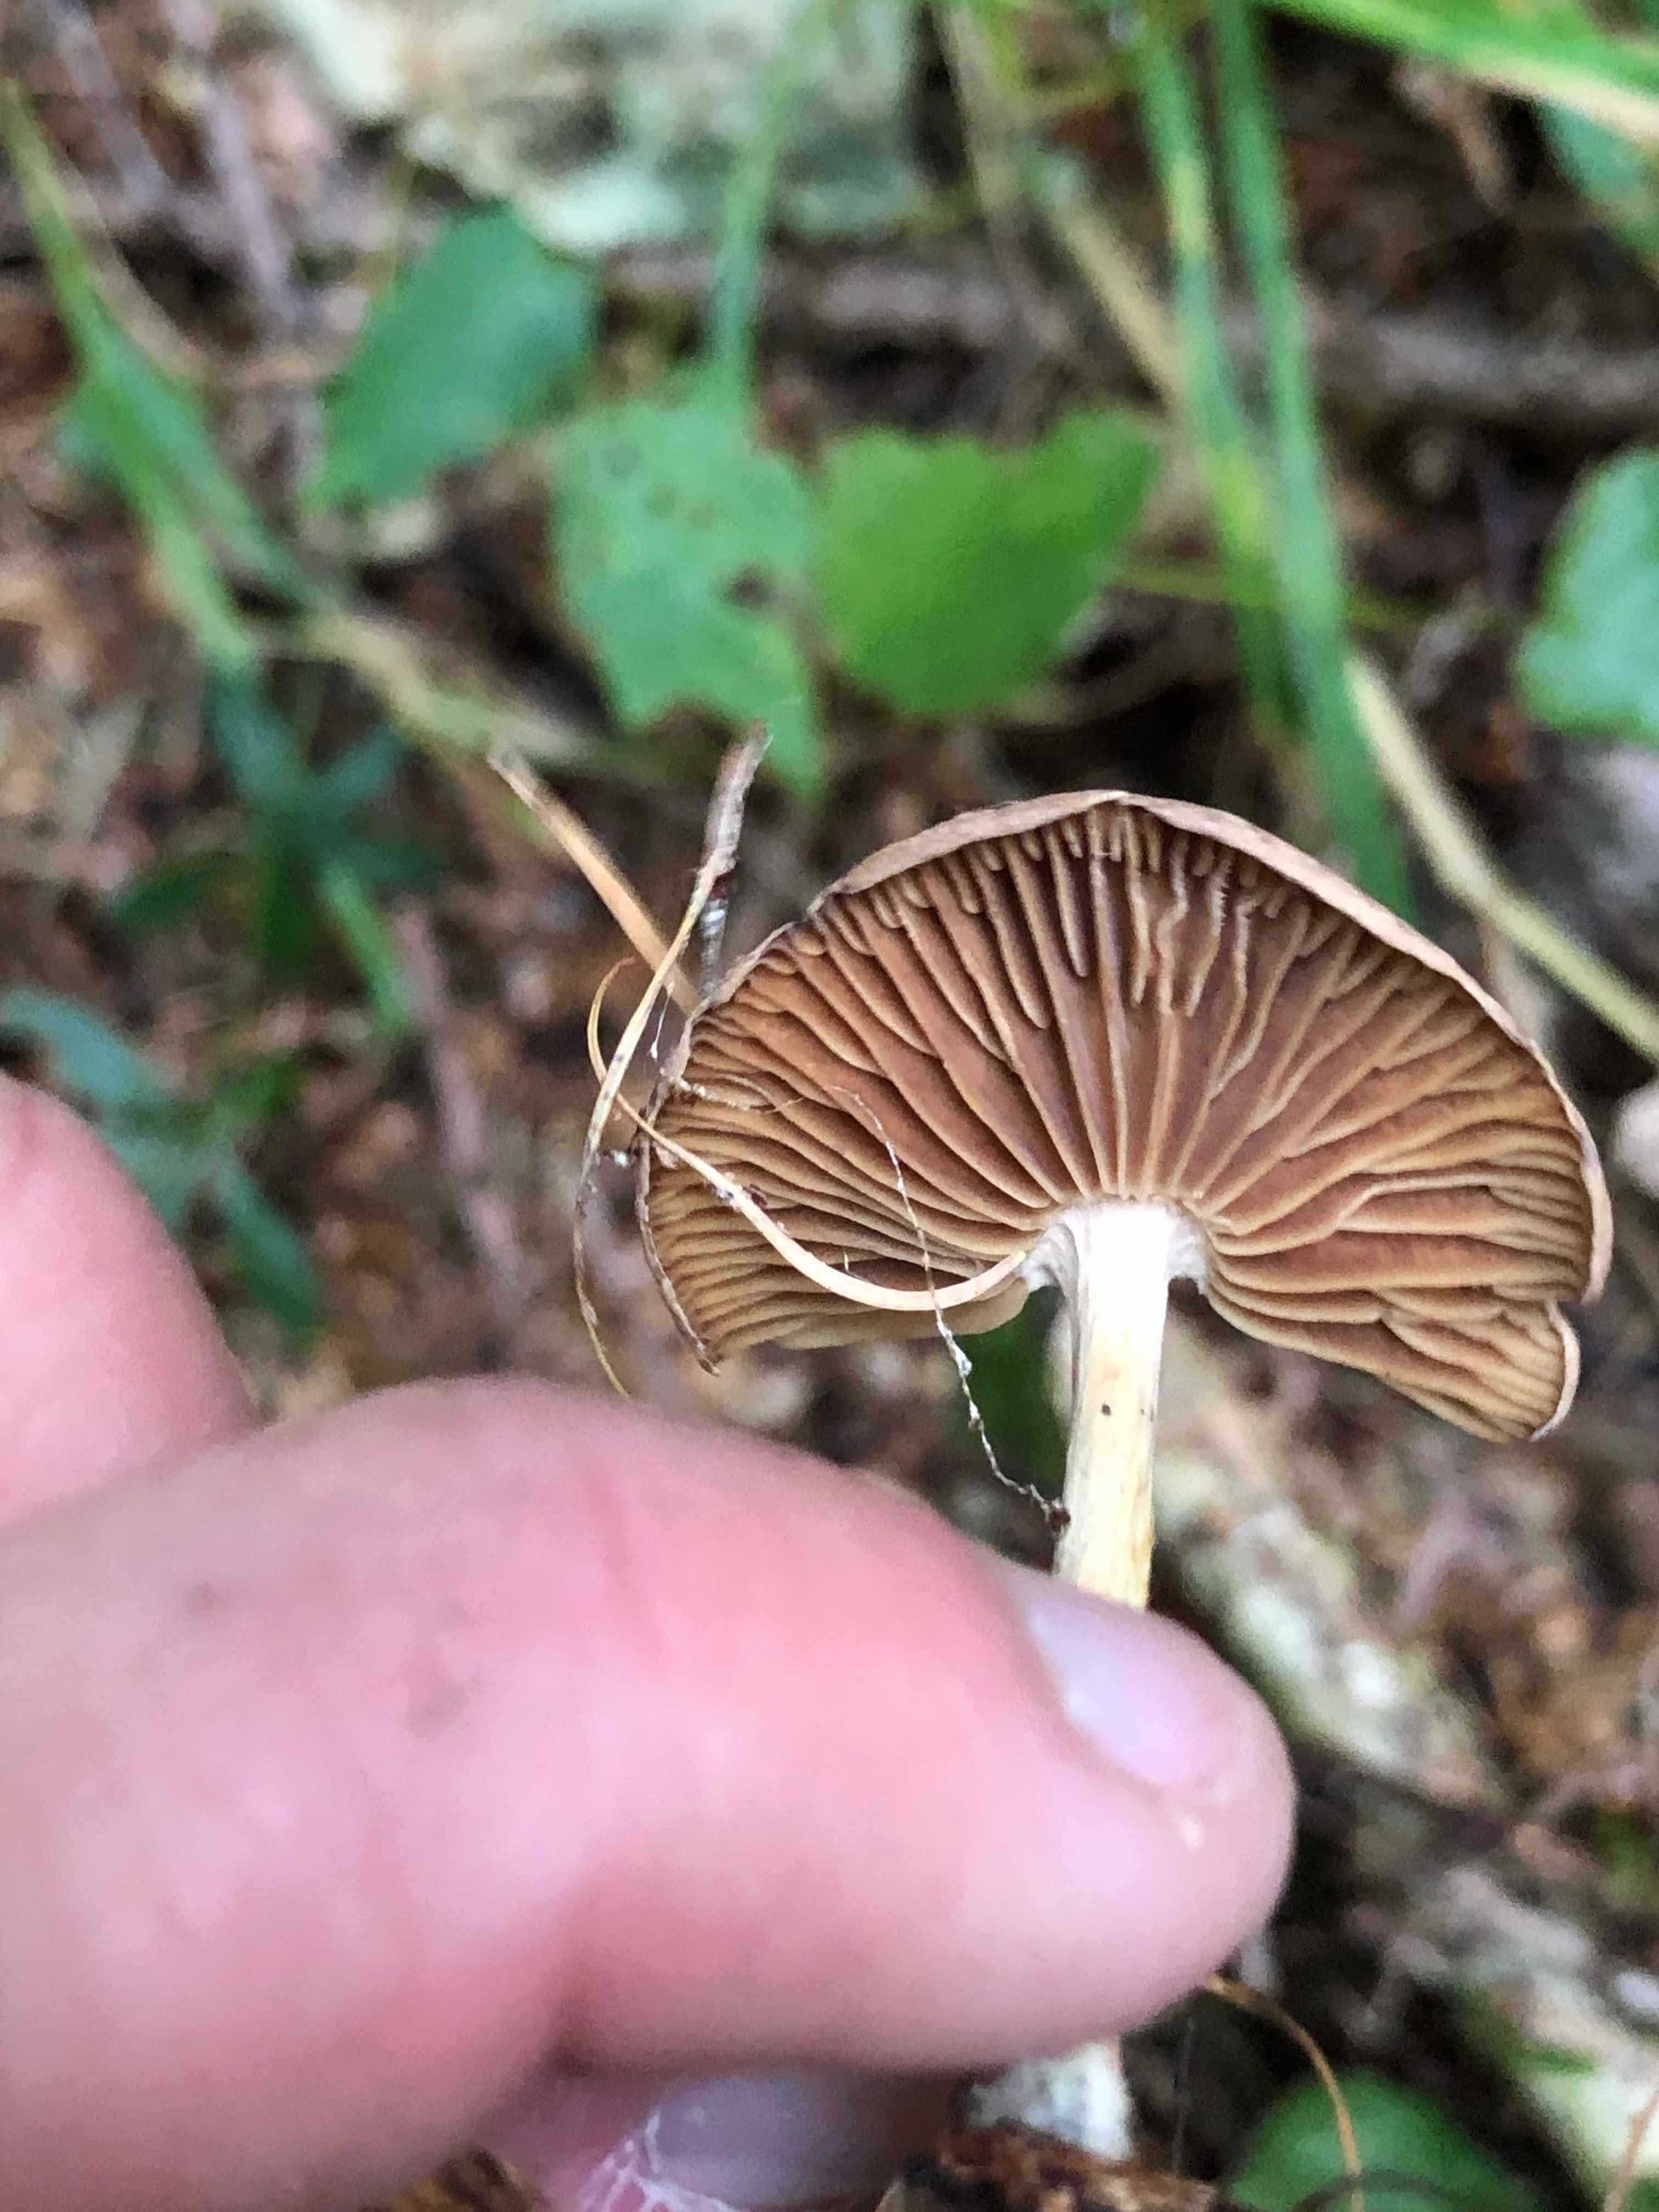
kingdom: Fungi
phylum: Basidiomycota
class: Agaricomycetes
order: Agaricales
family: Omphalotaceae
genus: Collybiopsis
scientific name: Collybiopsis peronata
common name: bestøvlet fladhat
